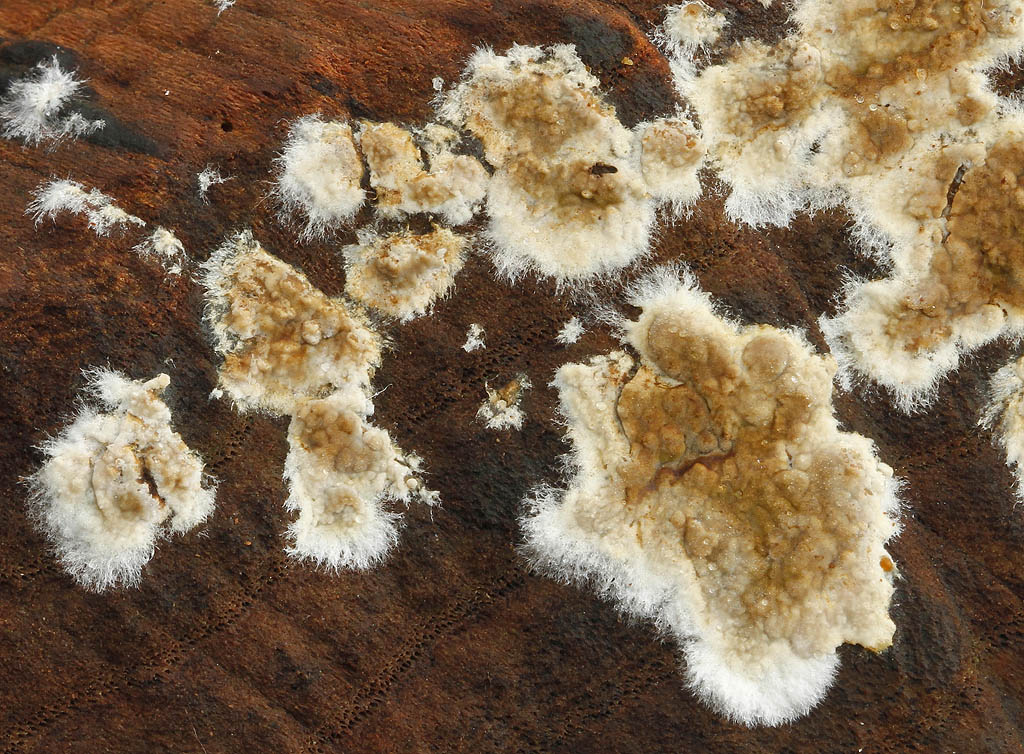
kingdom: Fungi
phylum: Basidiomycota
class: Agaricomycetes
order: Boletales
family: Coniophoraceae
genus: Coniophora
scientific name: Coniophora puteana
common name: gul tømmersvamp
